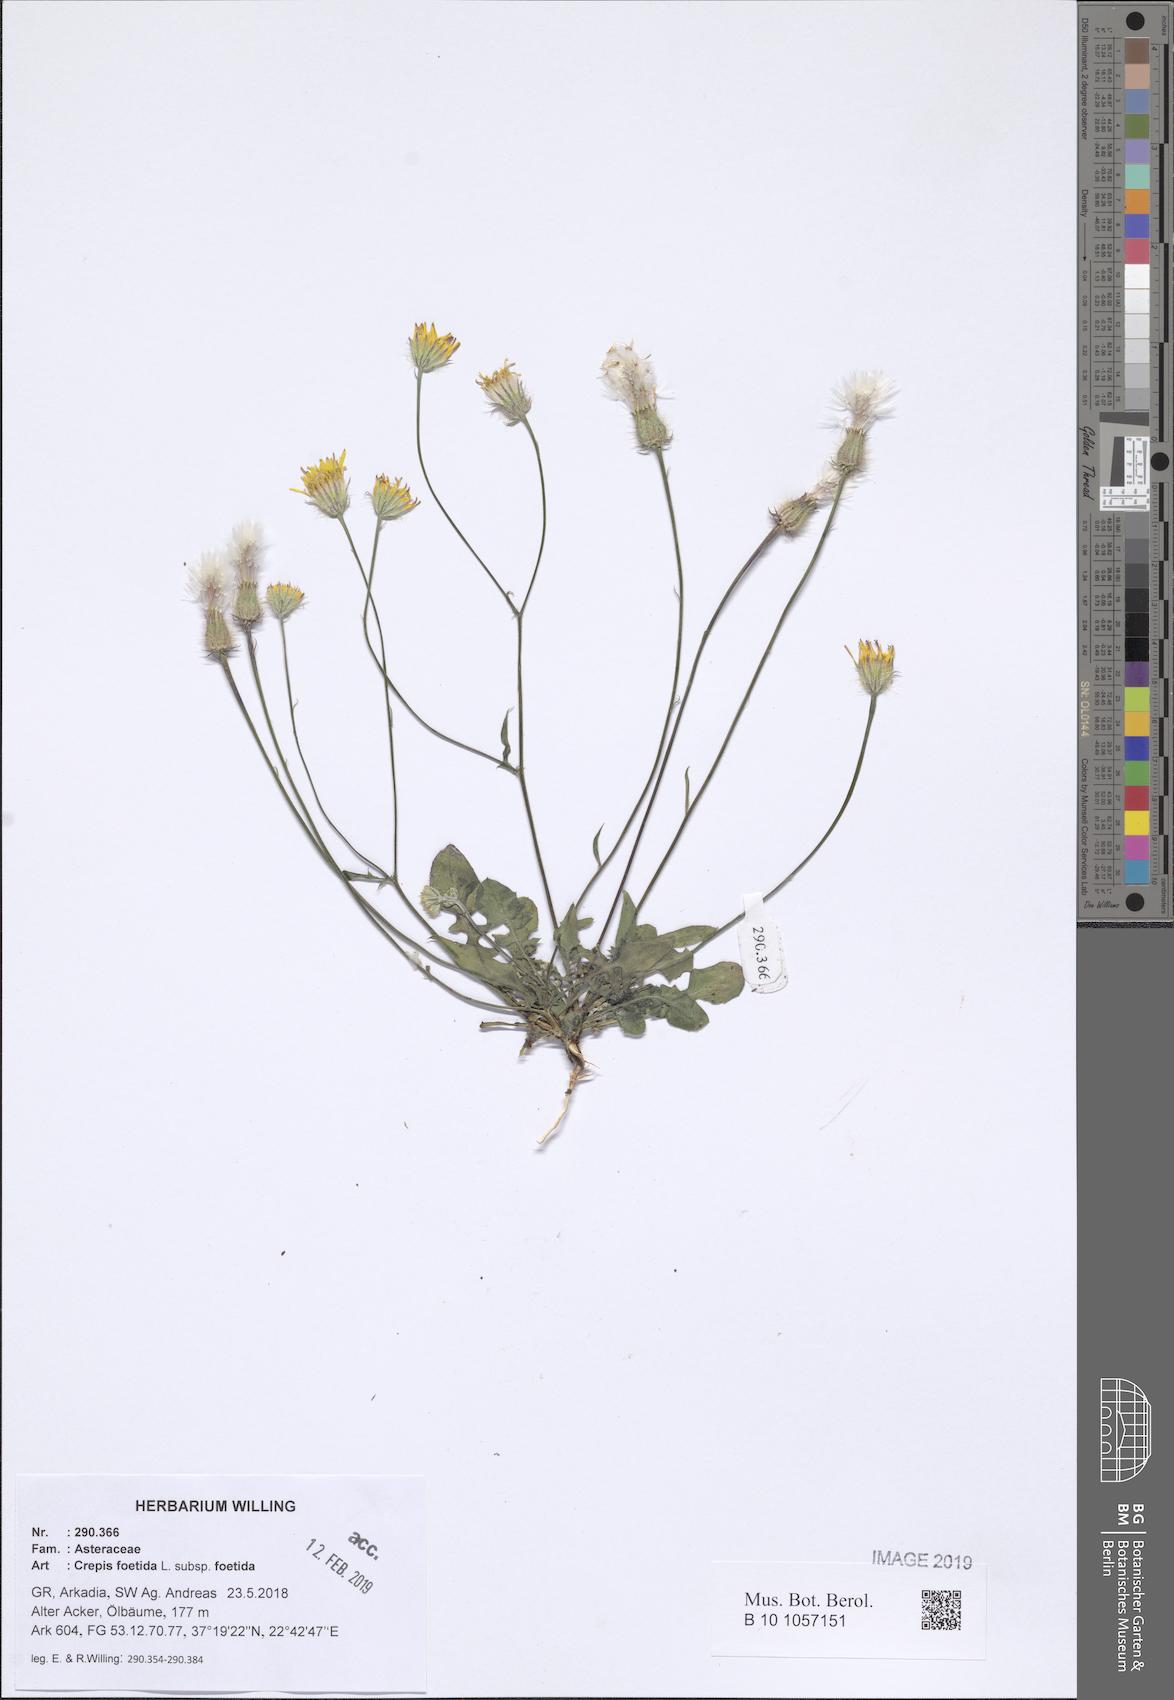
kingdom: Plantae
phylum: Tracheophyta
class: Magnoliopsida
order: Asterales
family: Asteraceae
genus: Crepis
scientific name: Crepis foetida
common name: Stinking hawk's-beard
